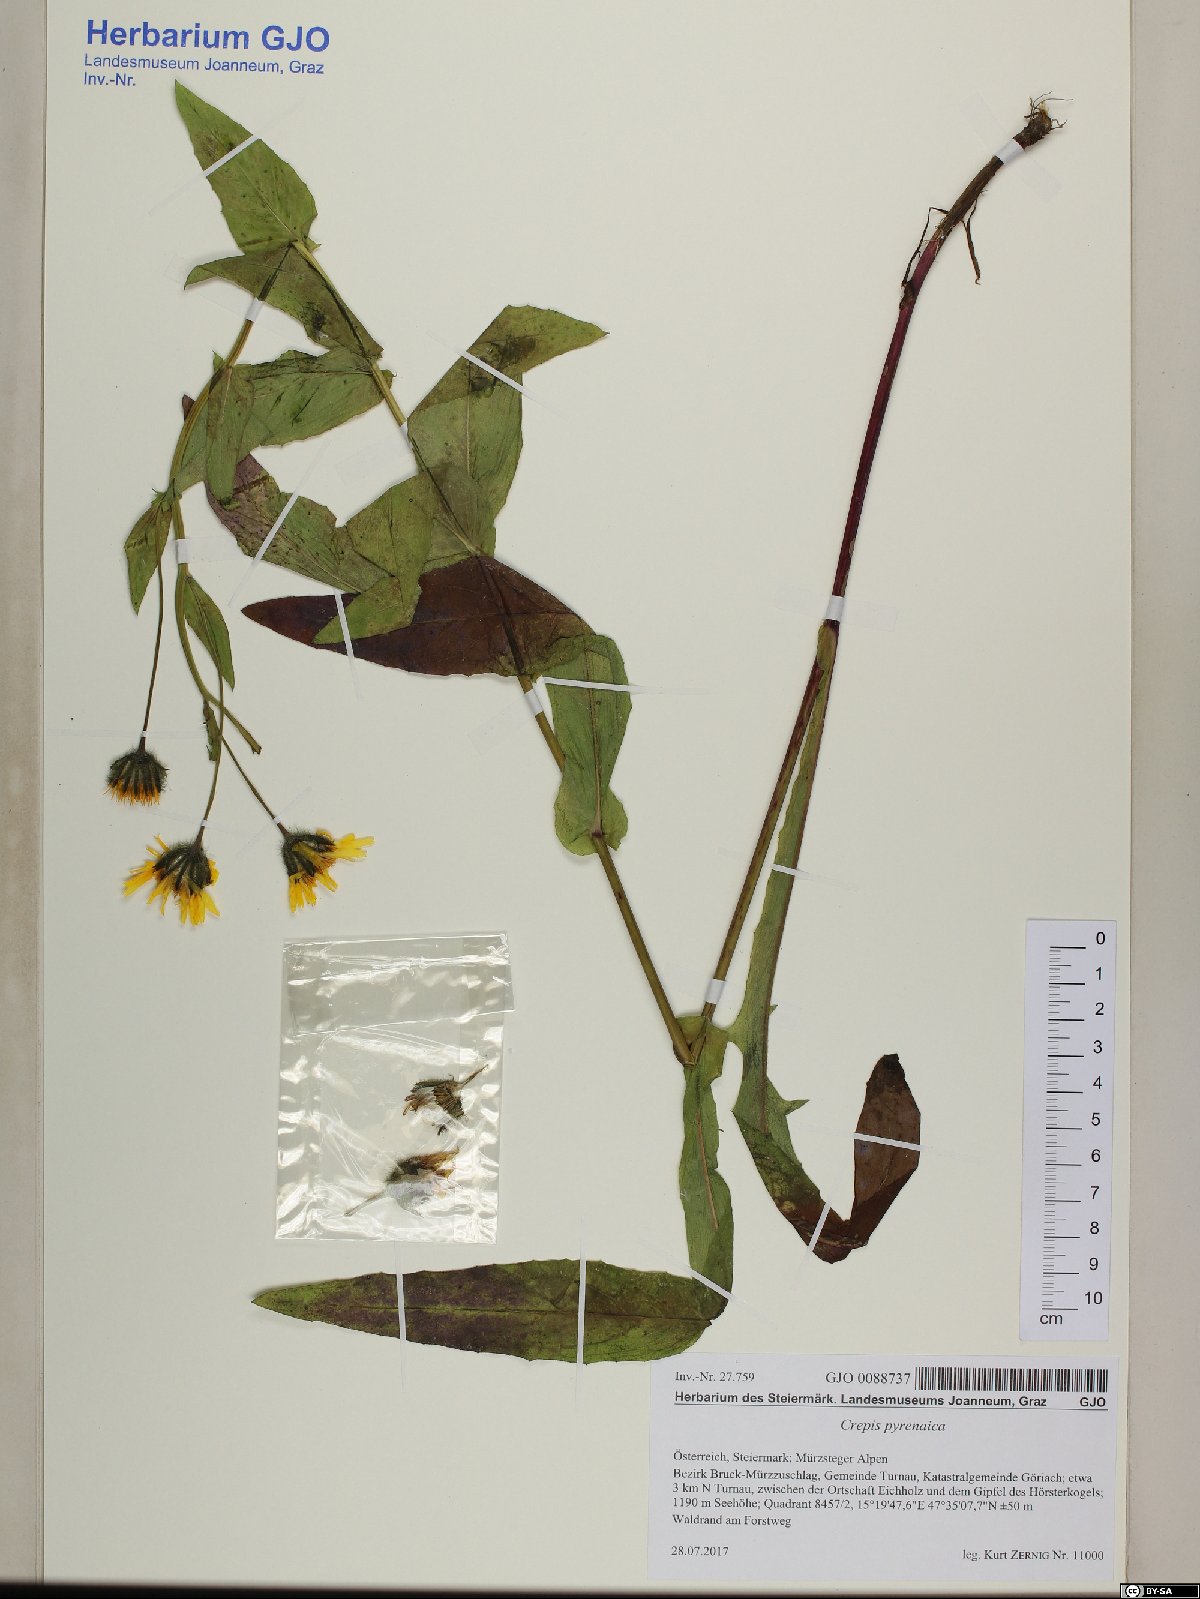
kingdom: Plantae
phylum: Tracheophyta
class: Magnoliopsida
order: Asterales
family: Asteraceae
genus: Crepis
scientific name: Crepis pyrenaica
